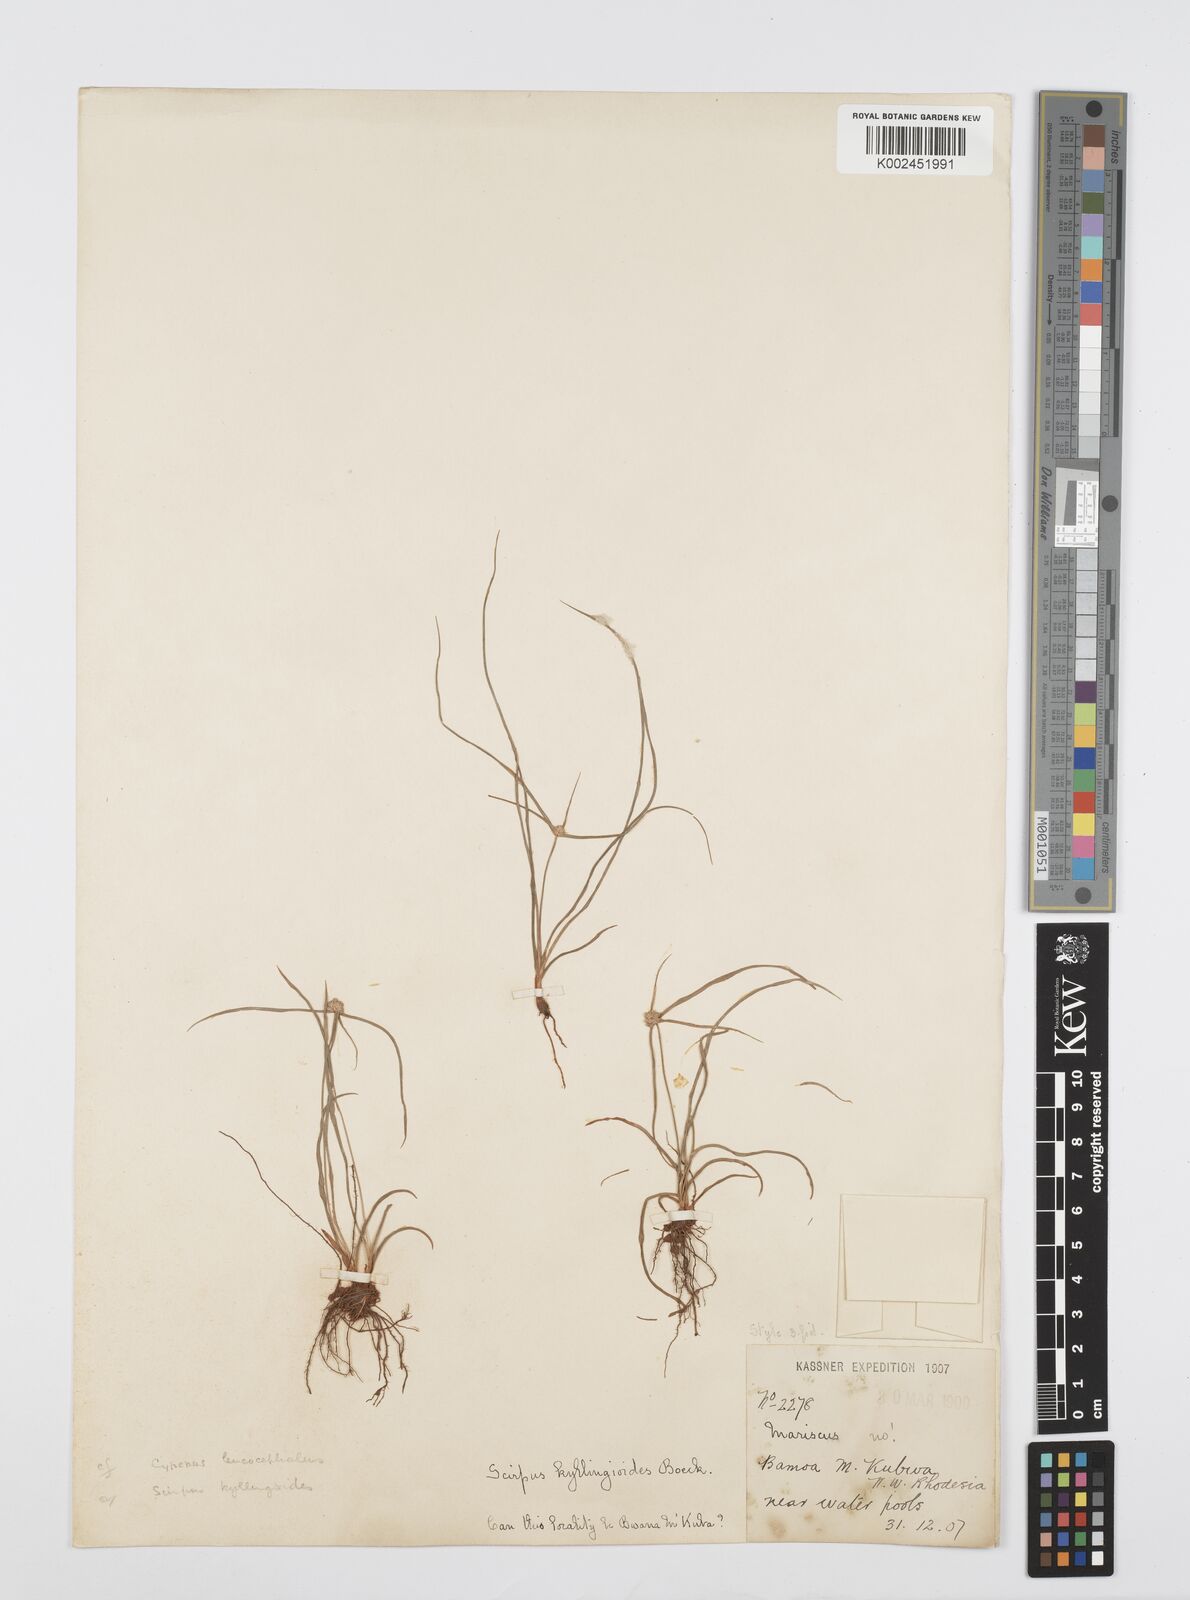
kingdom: Plantae
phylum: Tracheophyta
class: Liliopsida
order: Poales
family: Cyperaceae
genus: Cyperus
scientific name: Cyperus microcephalus
